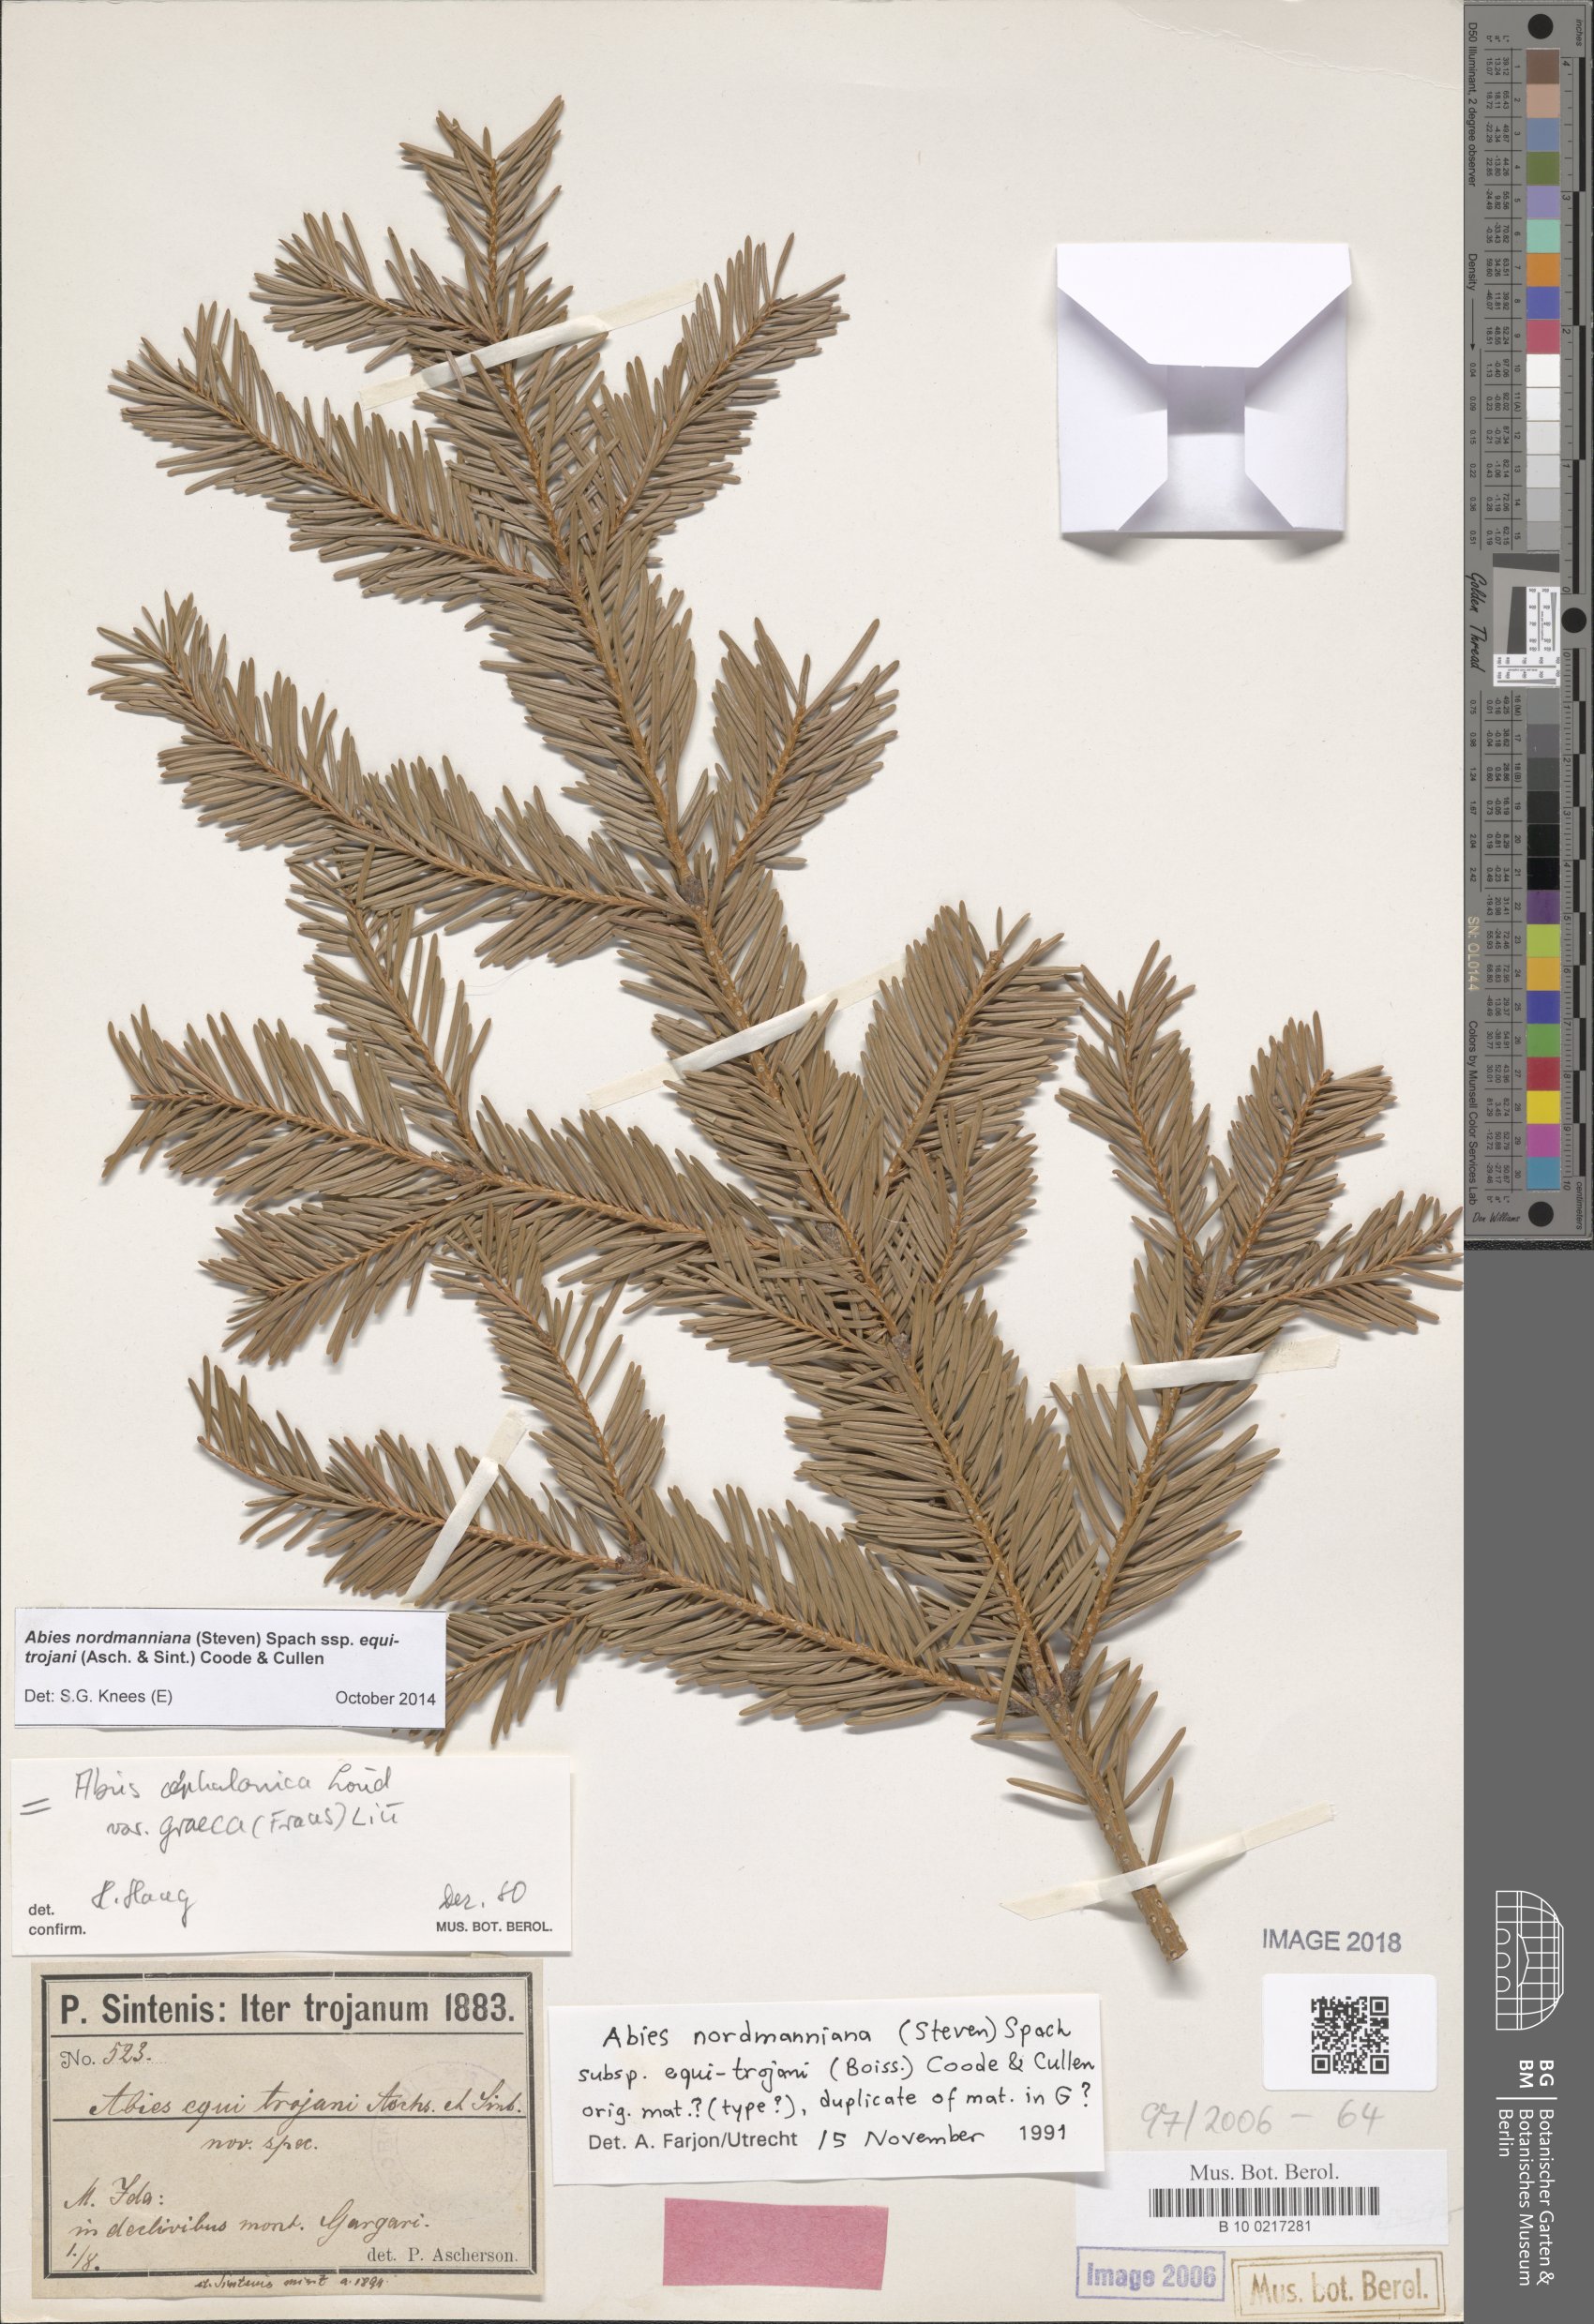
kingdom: Plantae
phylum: Tracheophyta
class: Pinopsida
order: Pinales
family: Pinaceae
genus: Abies
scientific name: Abies nordmanniana
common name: Caucasian fir
